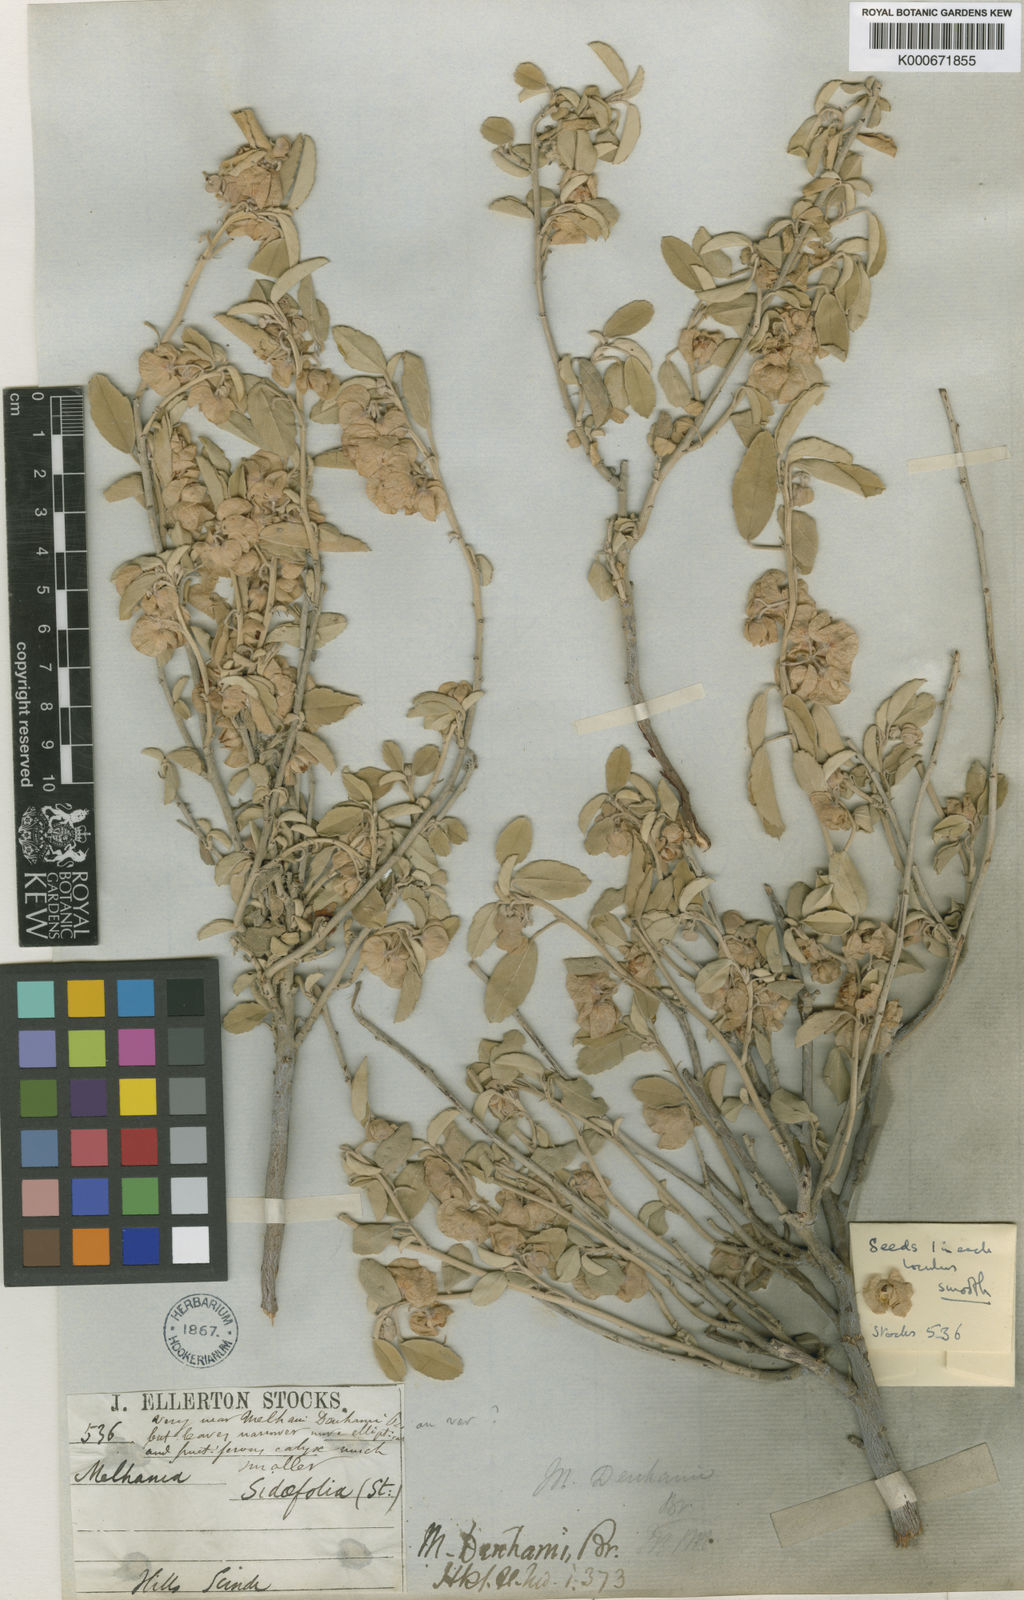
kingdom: Plantae
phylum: Tracheophyta
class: Magnoliopsida
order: Malvales
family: Malvaceae
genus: Melhania
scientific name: Melhania denhamii
